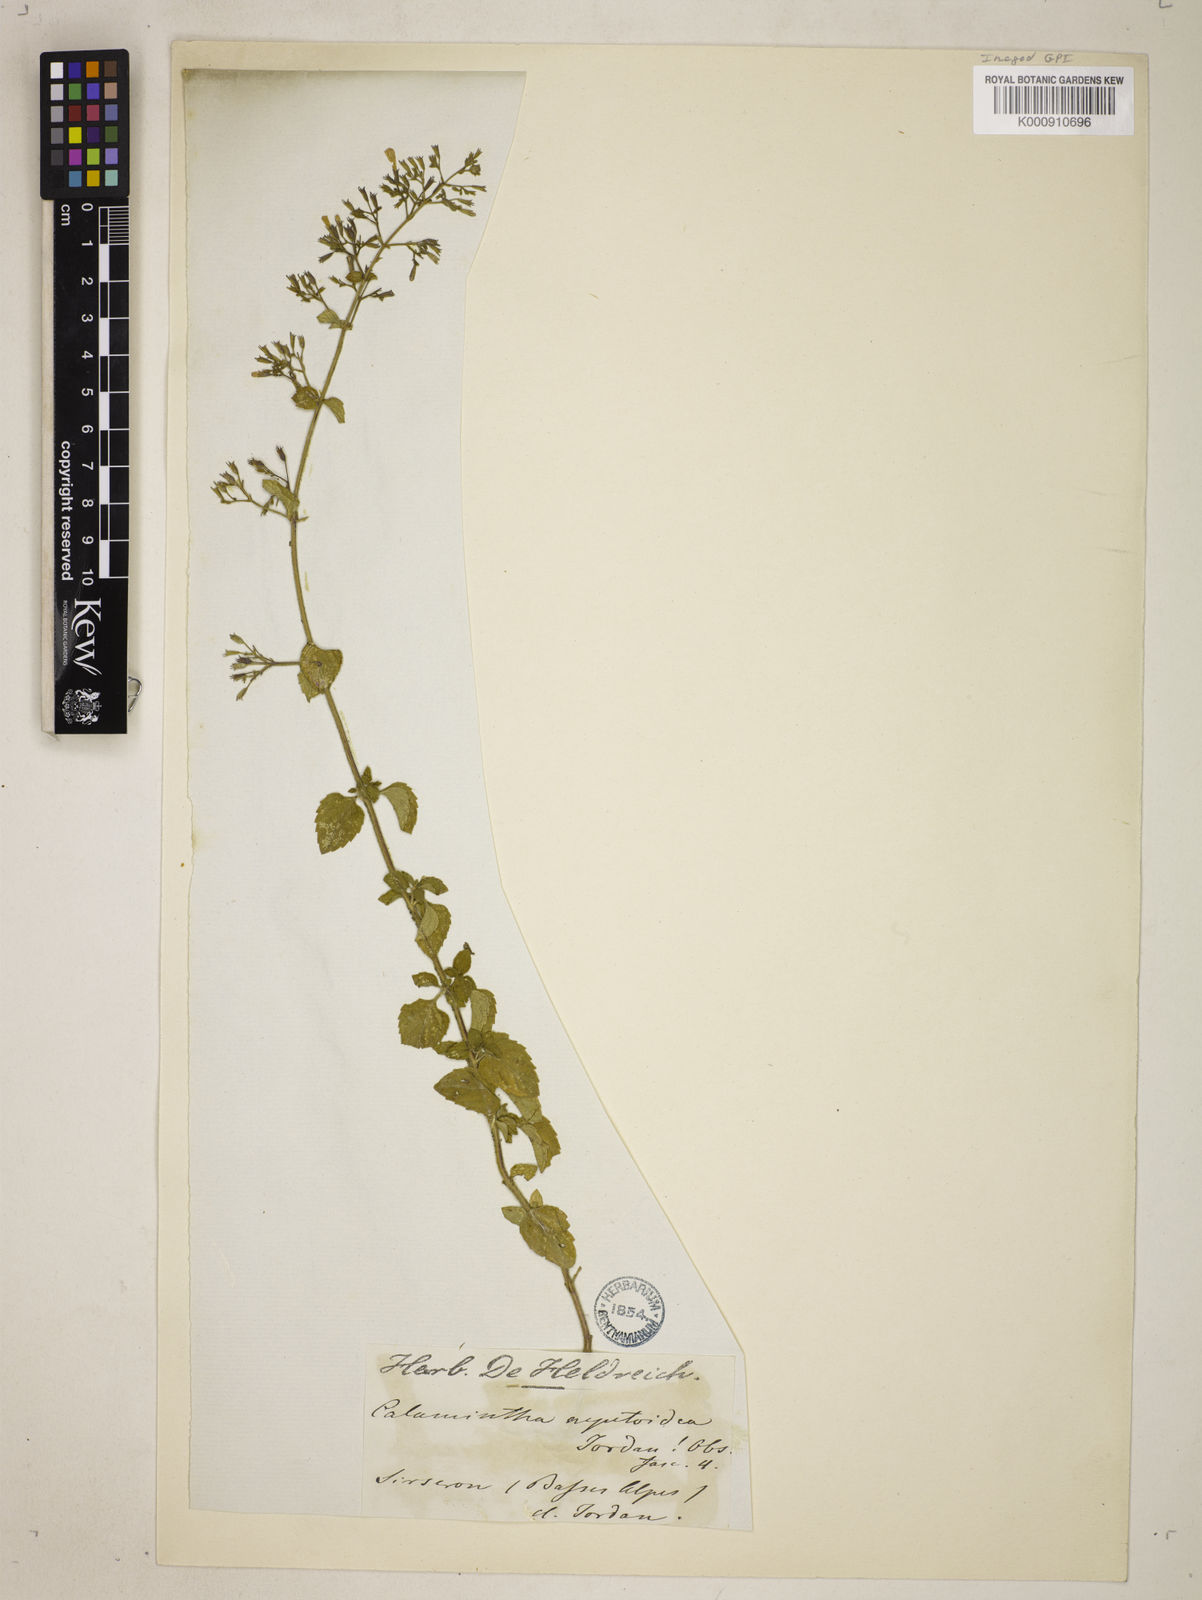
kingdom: Plantae
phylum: Tracheophyta
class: Magnoliopsida
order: Lamiales
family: Lamiaceae
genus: Clinopodium
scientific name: Clinopodium nepeta
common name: Lesser calamint
